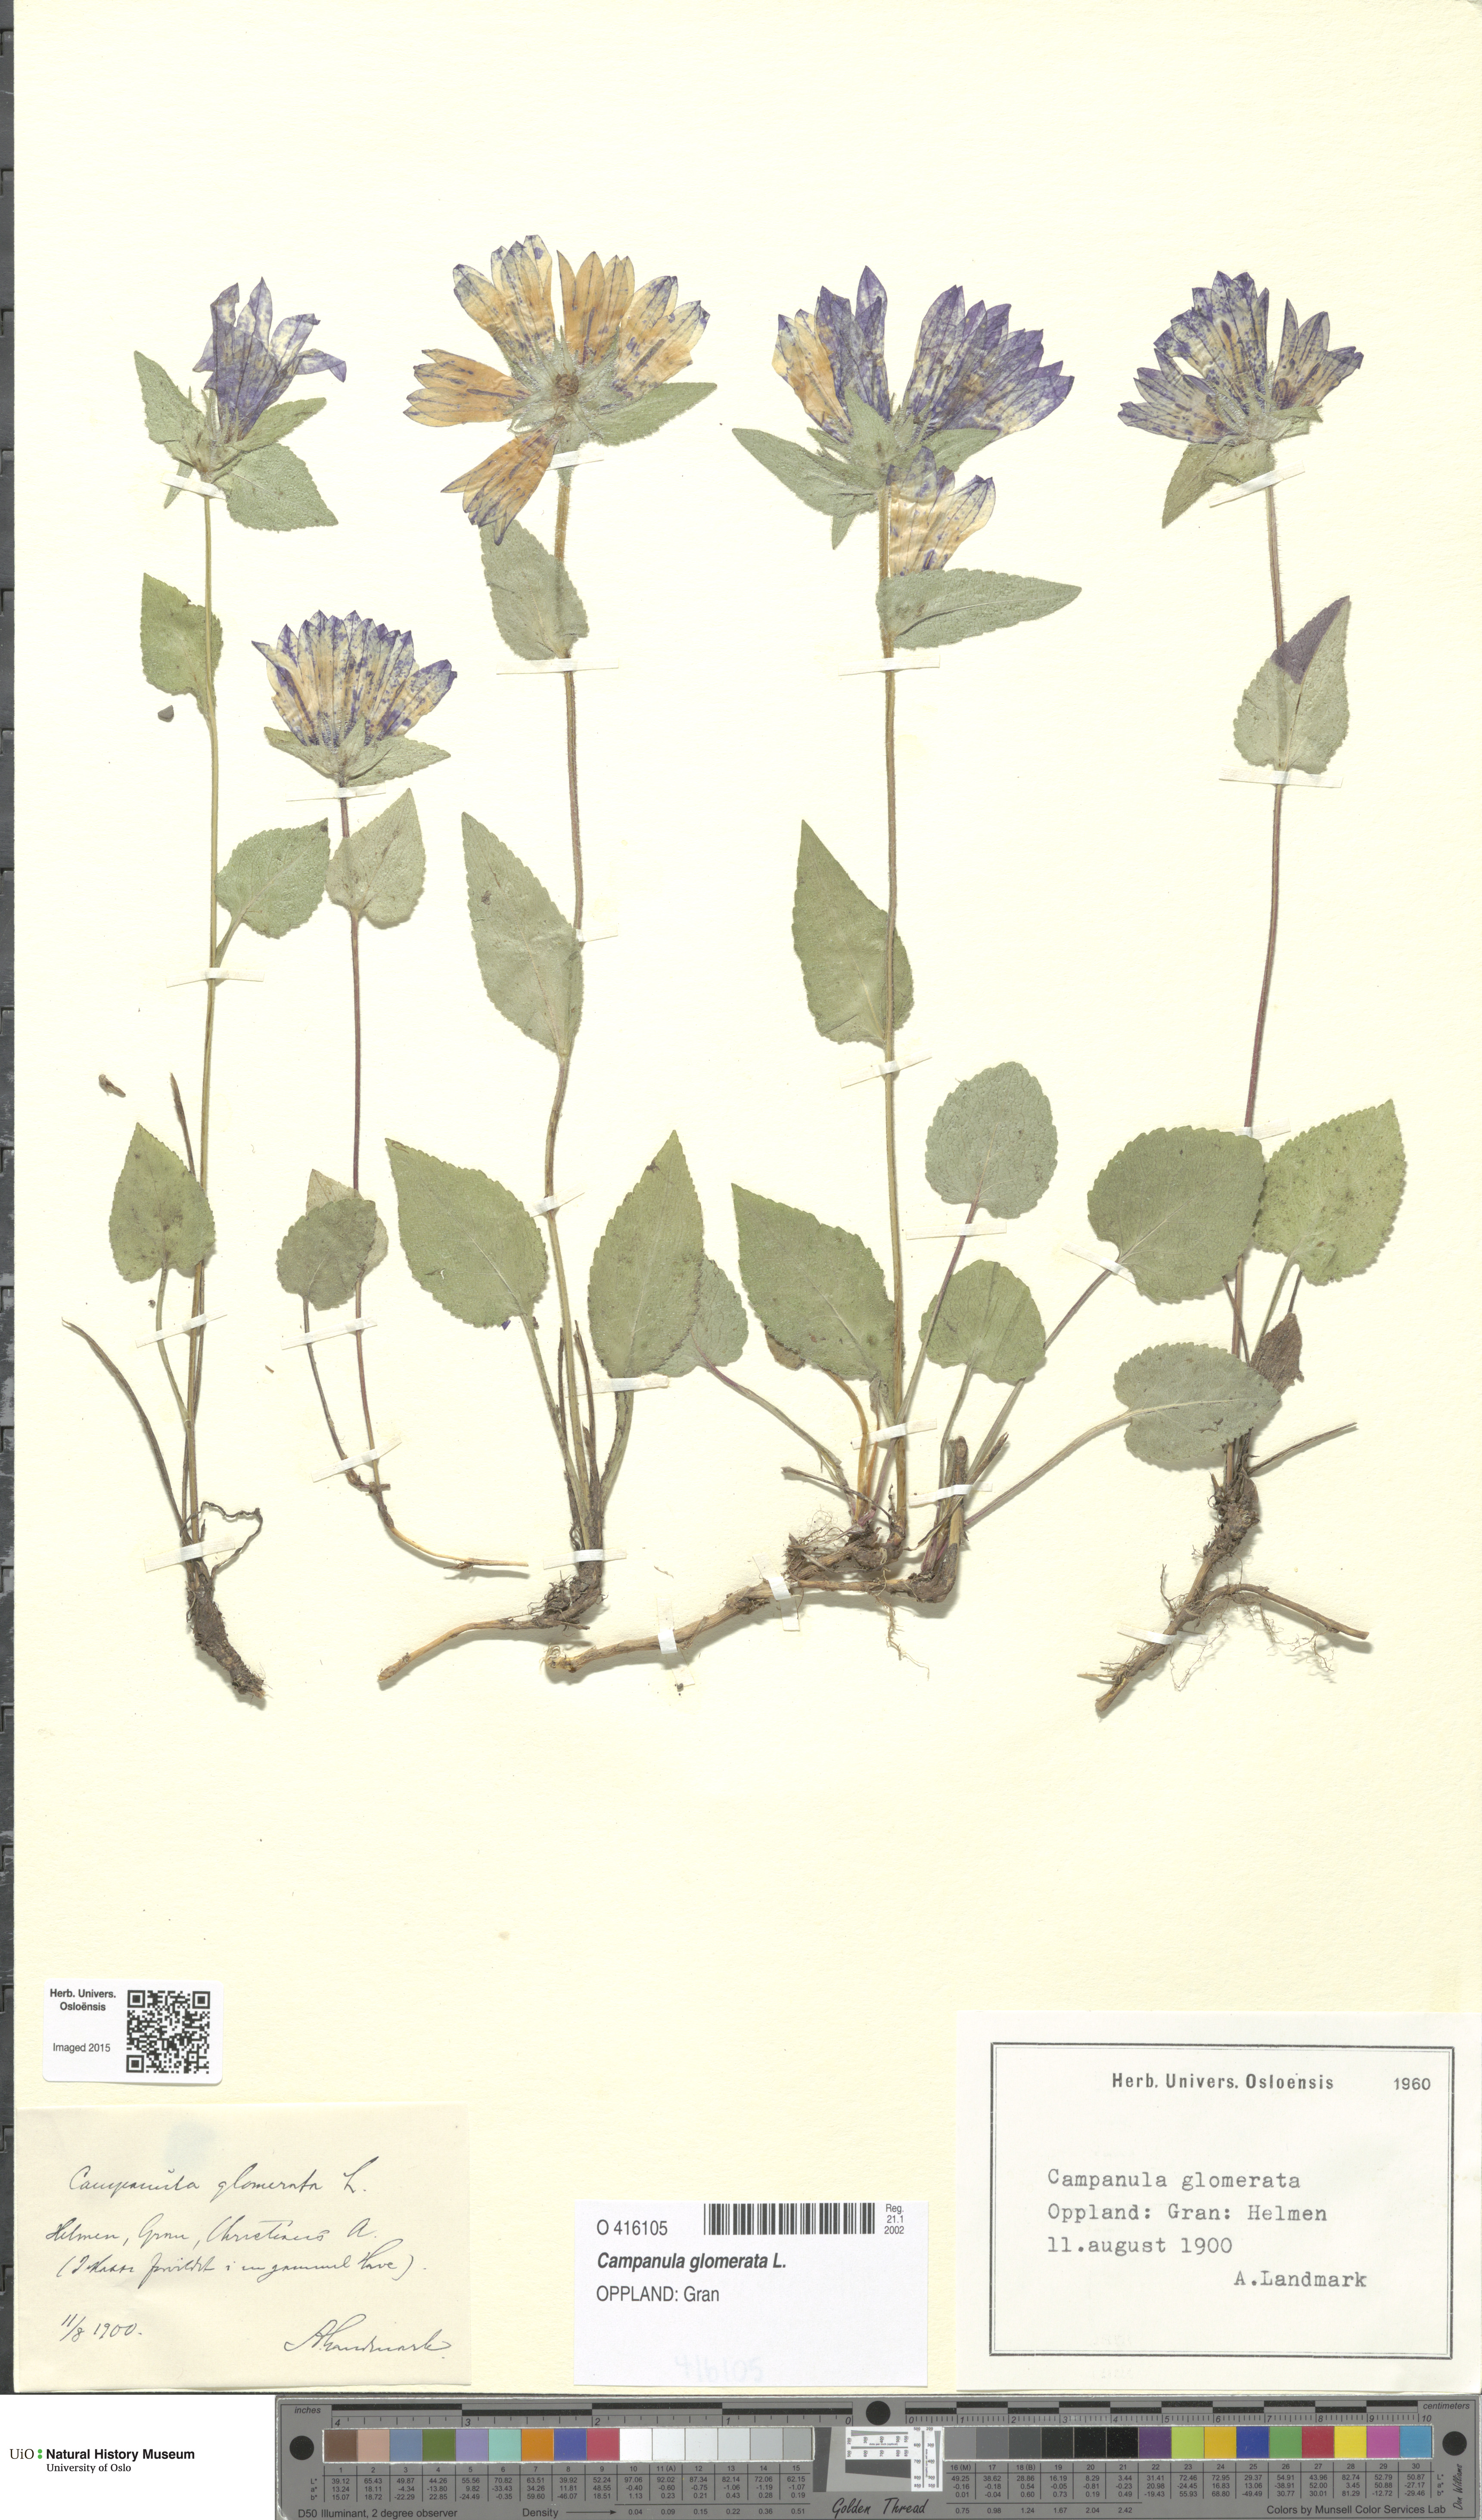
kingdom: Plantae
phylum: Tracheophyta
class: Magnoliopsida
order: Asterales
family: Campanulaceae
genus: Campanula
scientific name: Campanula glomerata
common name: Clustered bellflower
